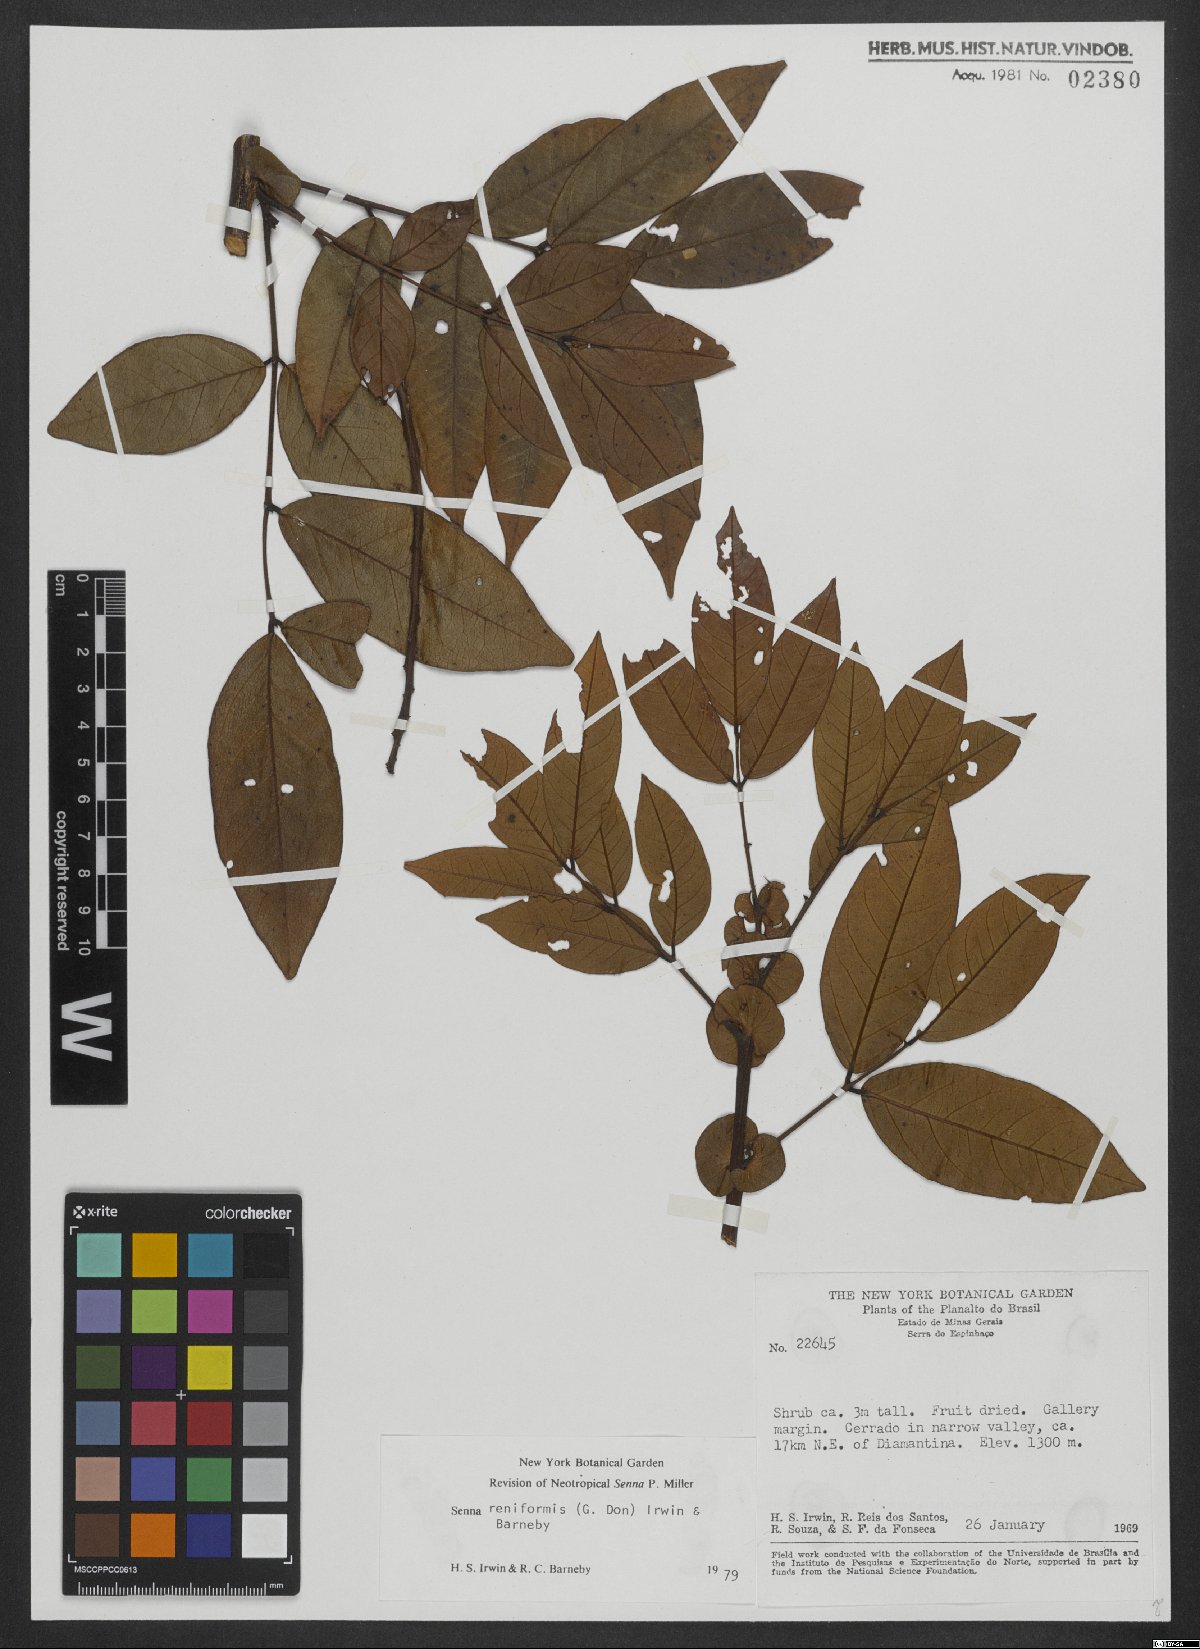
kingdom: Plantae
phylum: Tracheophyta
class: Magnoliopsida
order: Fabales
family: Fabaceae
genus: Senna
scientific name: Senna reniformis
